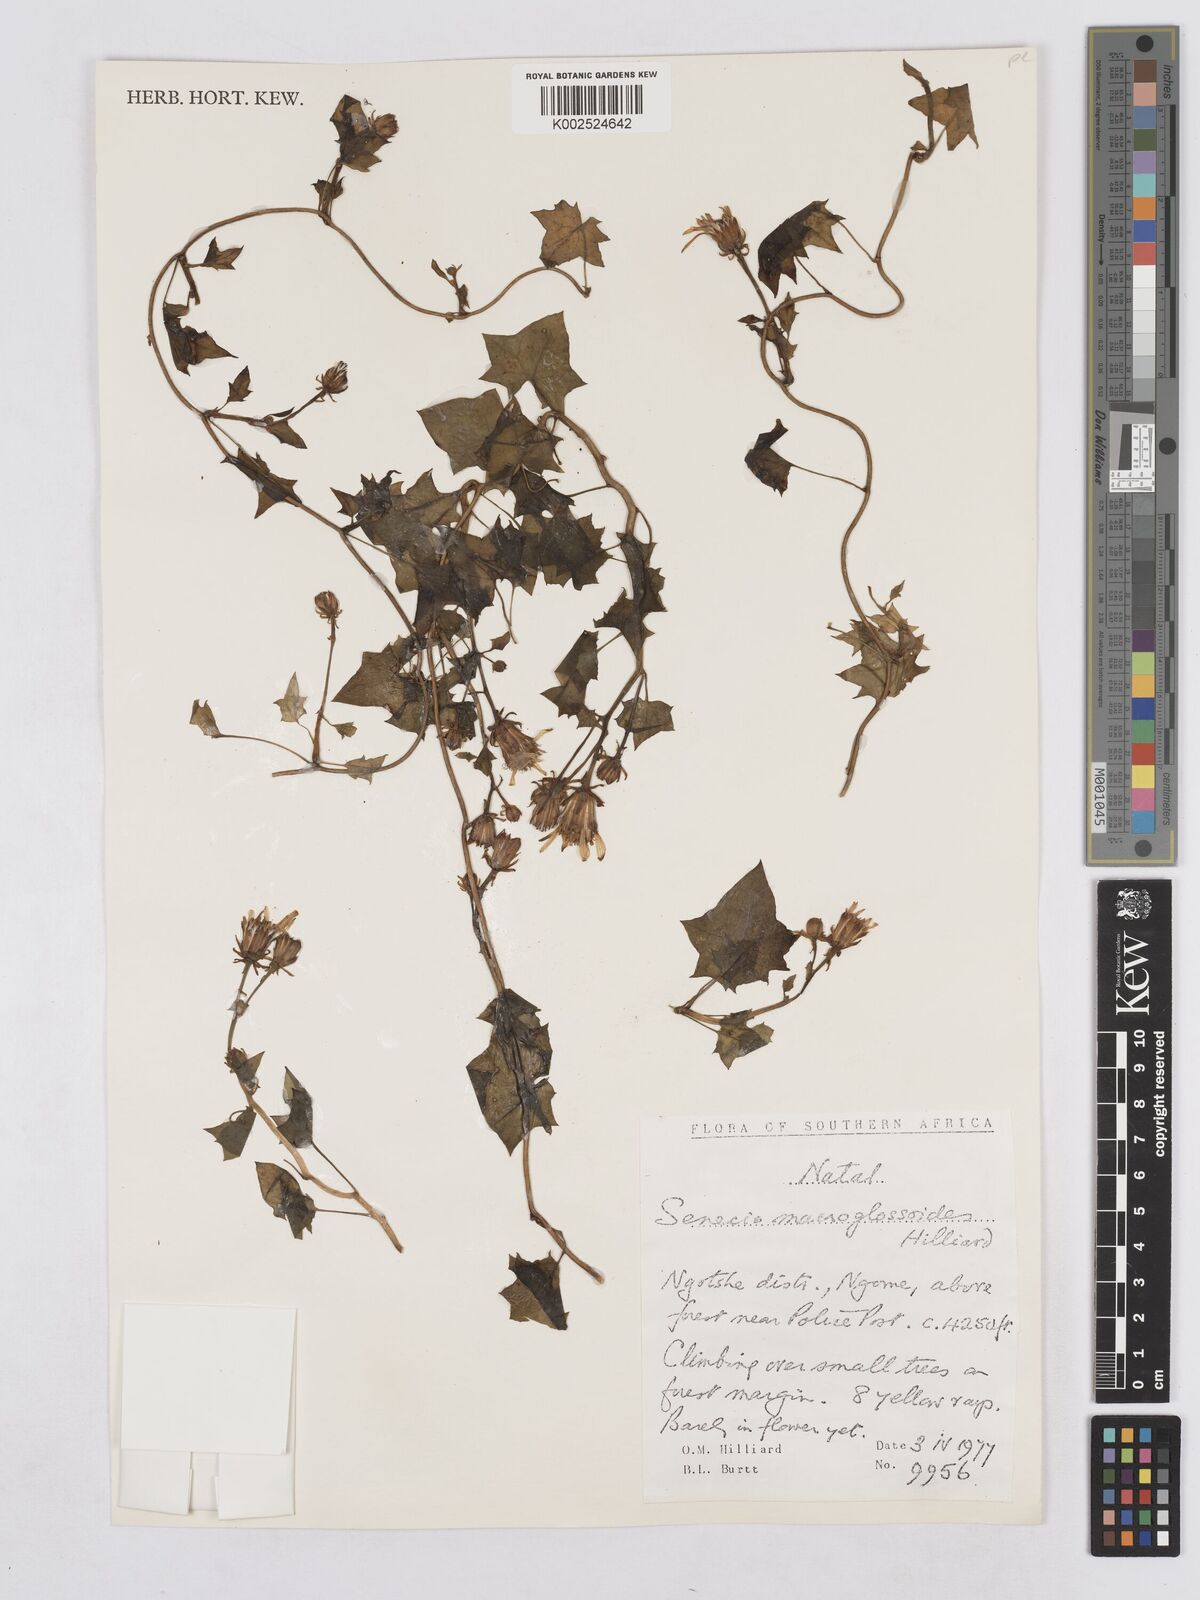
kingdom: Plantae
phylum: Tracheophyta
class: Magnoliopsida
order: Asterales
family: Asteraceae
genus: Senecio
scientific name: Senecio macroglossoides
